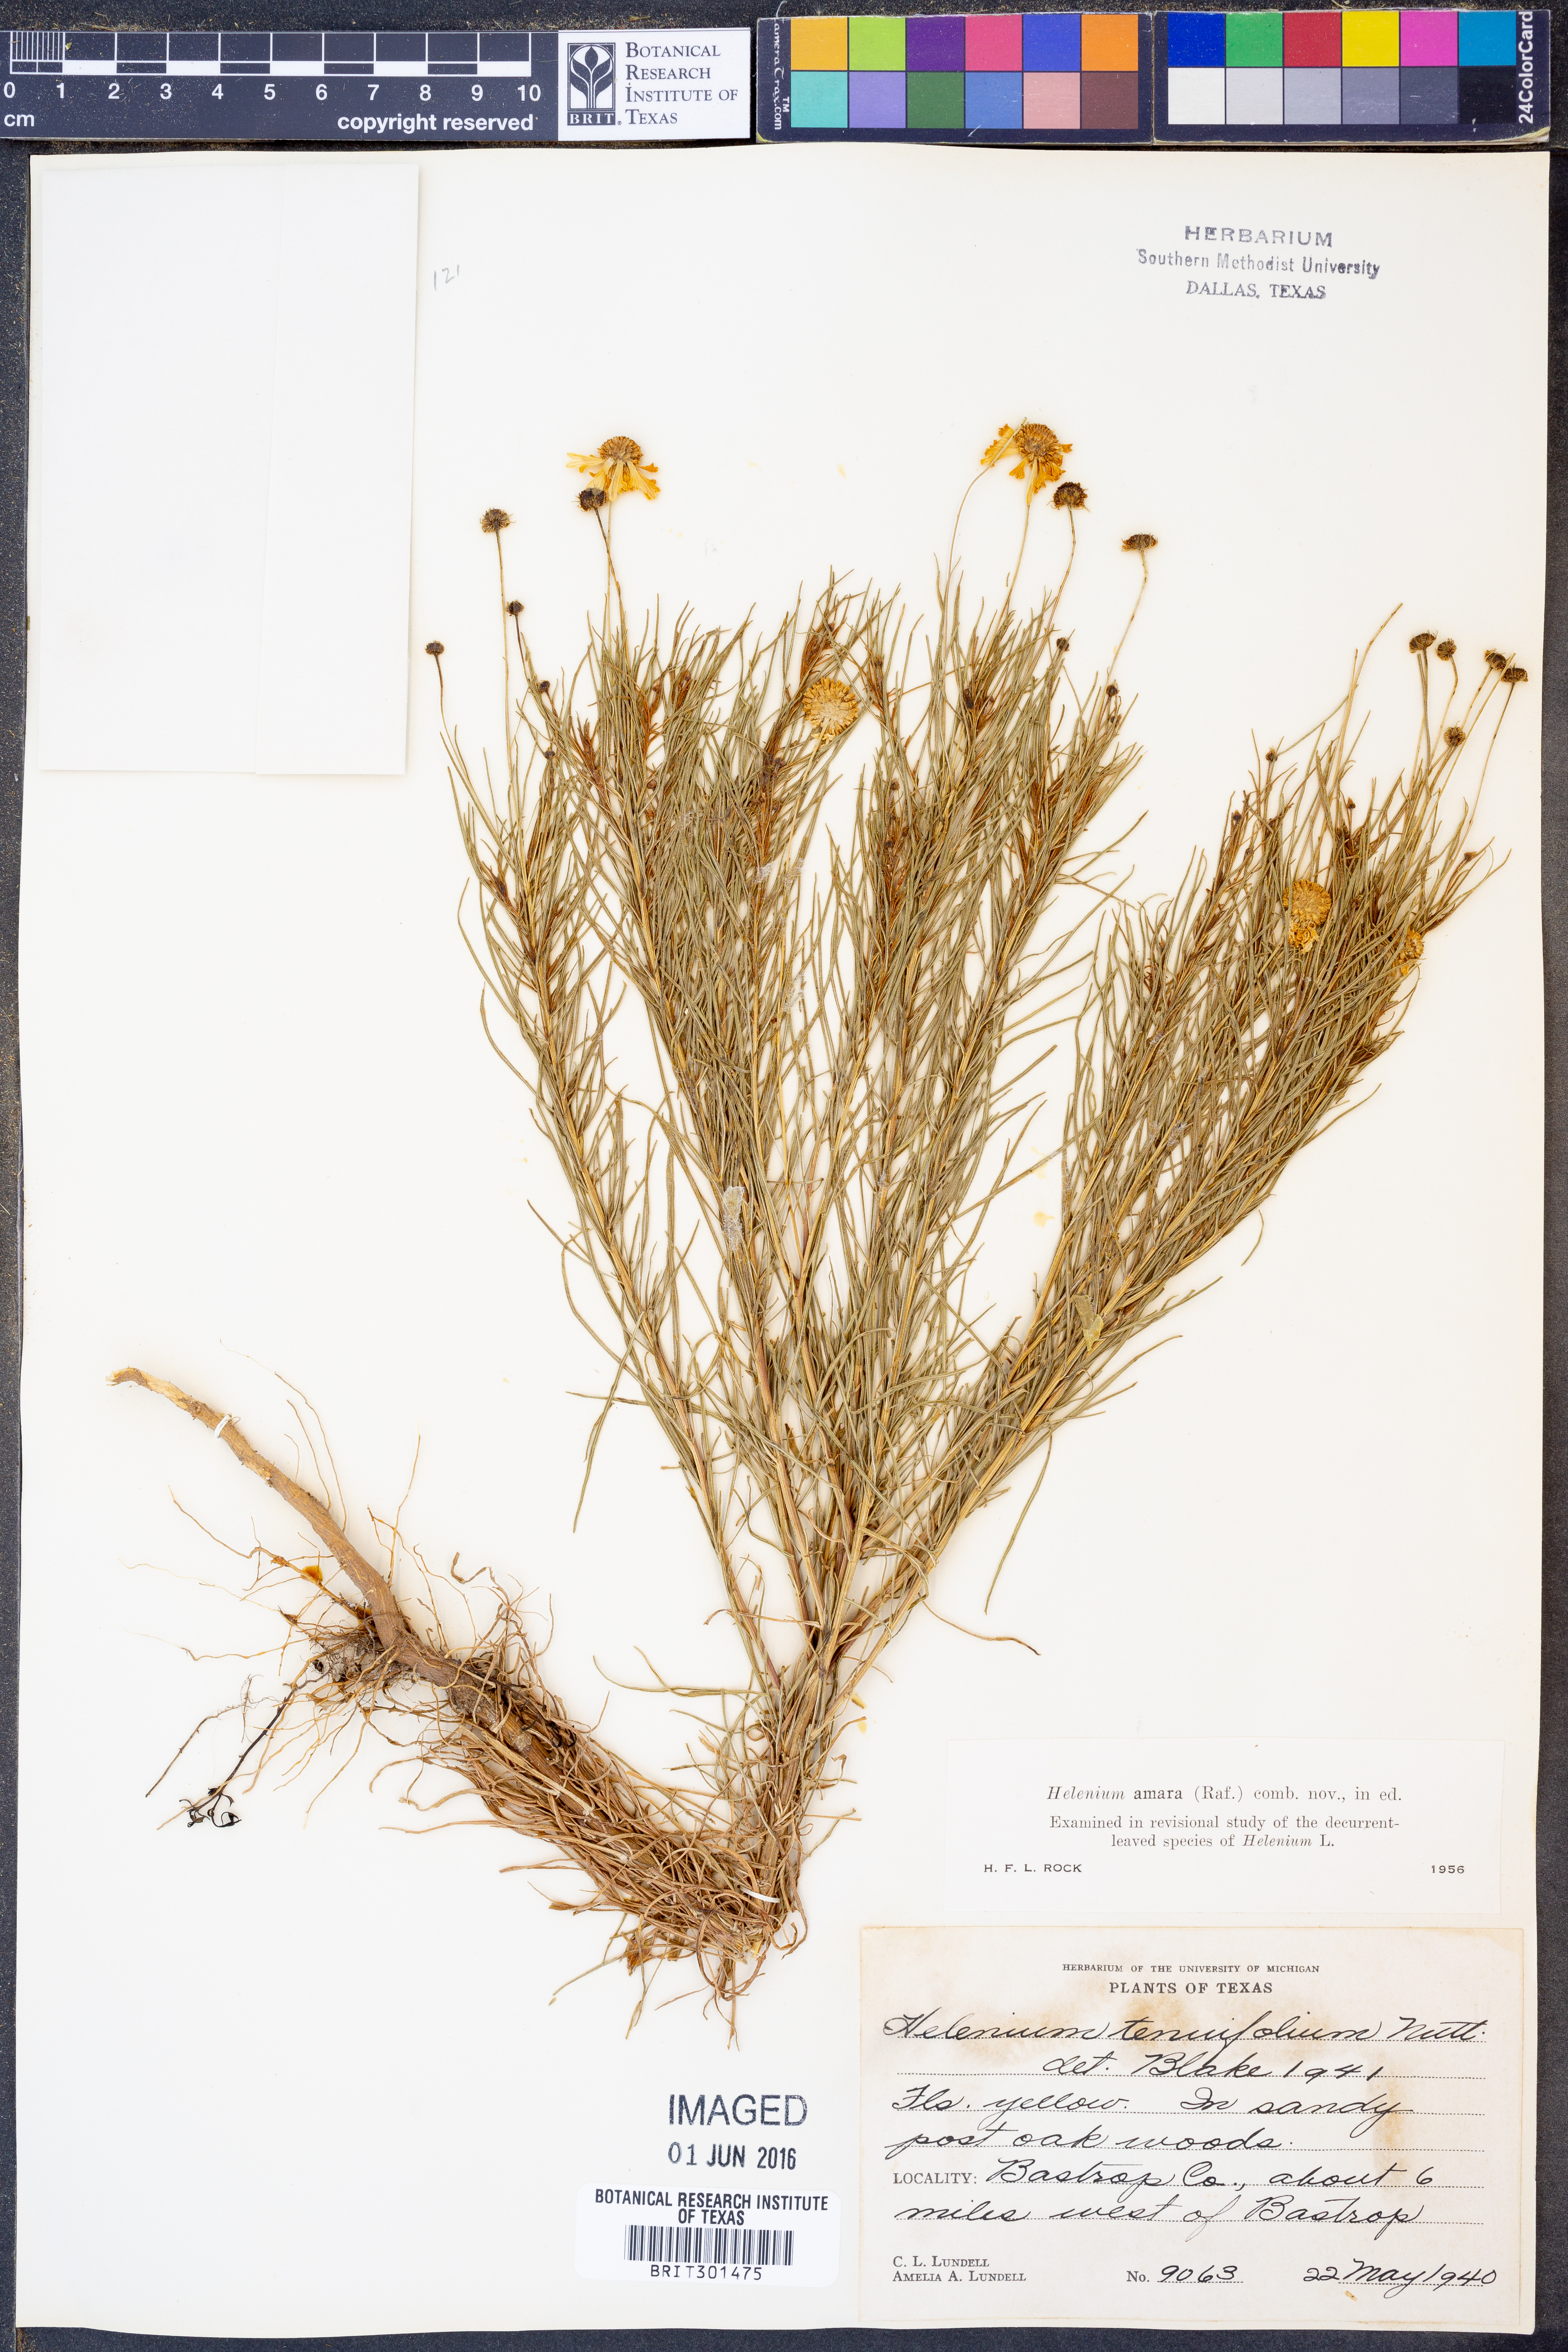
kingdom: Plantae
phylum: Tracheophyta
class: Magnoliopsida
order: Asterales
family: Asteraceae
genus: Helenium
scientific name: Helenium amarum
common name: Bitter sneezeweed
